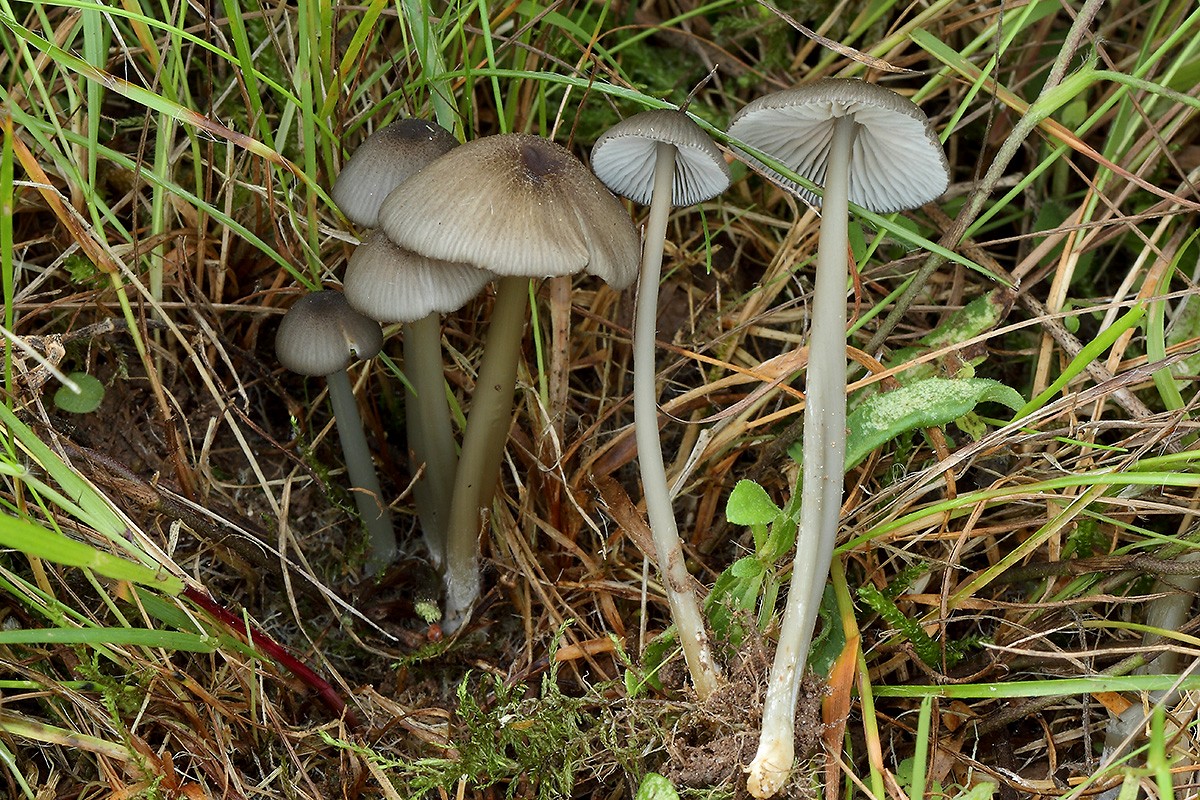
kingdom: Fungi
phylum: Basidiomycota
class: Agaricomycetes
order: Agaricales
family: Entolomataceae
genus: Entoloma
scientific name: Entoloma exile
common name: rødplettet rødblad
